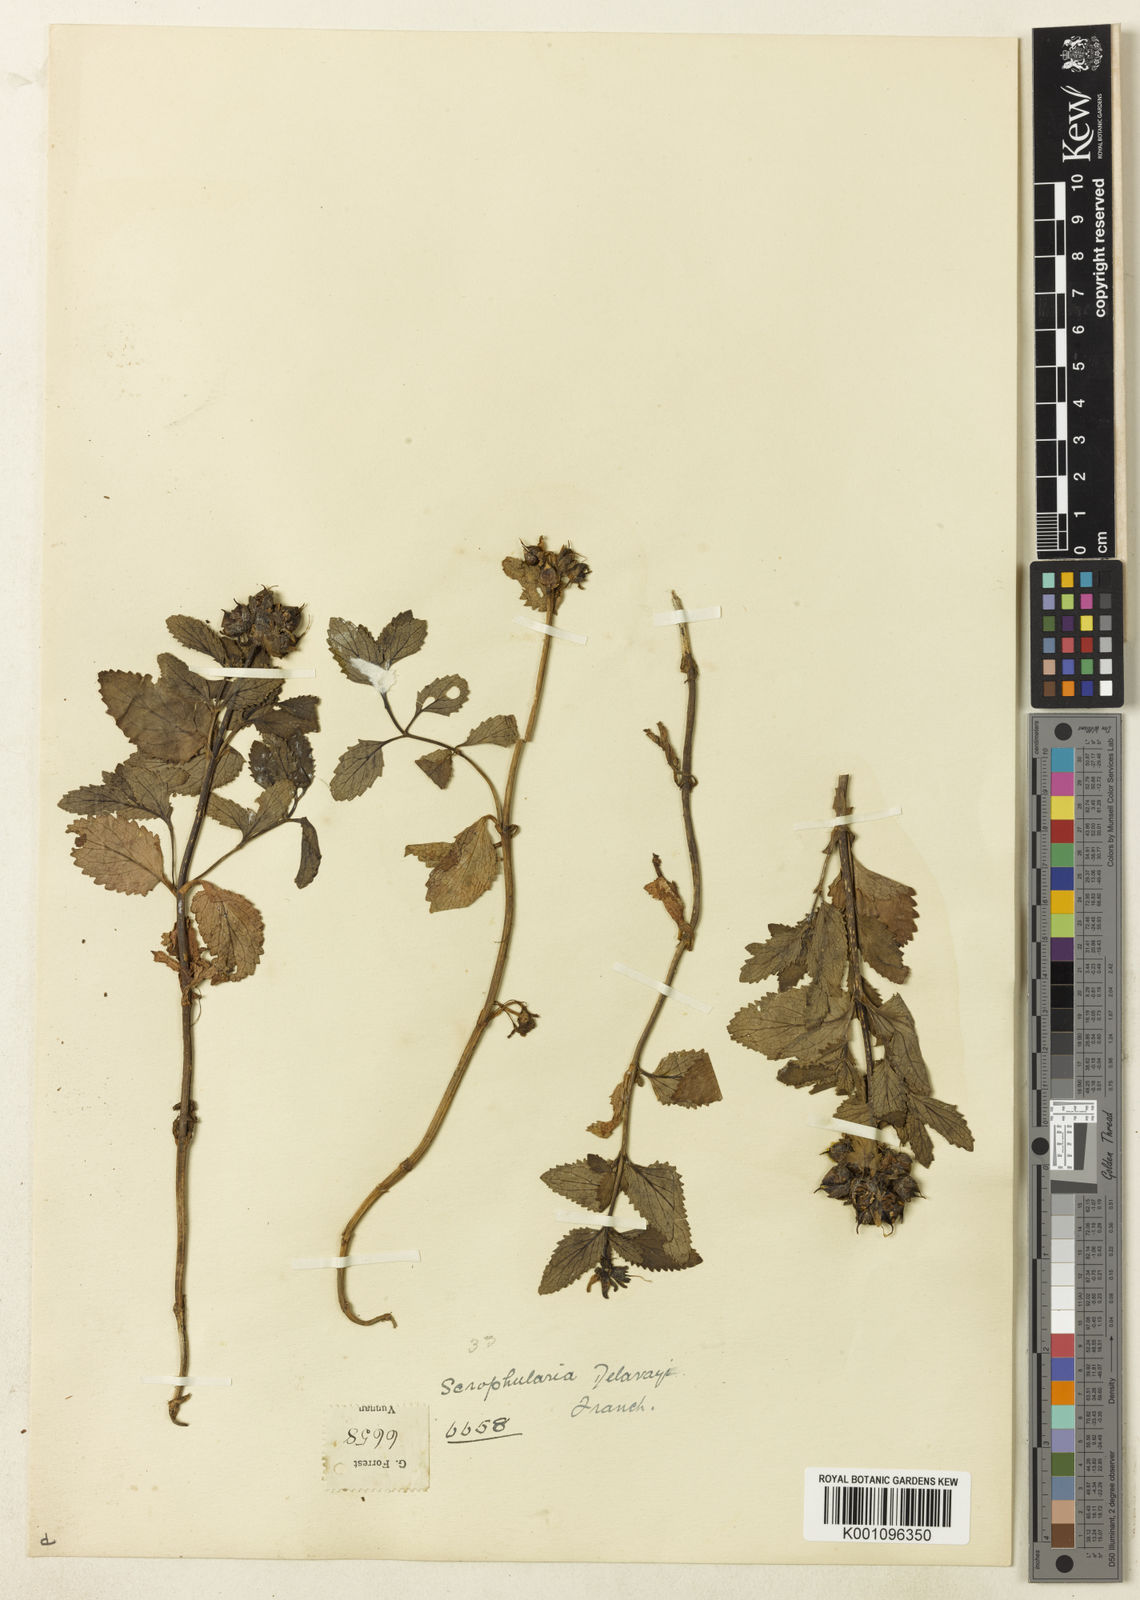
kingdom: Plantae
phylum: Tracheophyta
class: Magnoliopsida
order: Lamiales
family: Scrophulariaceae
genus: Scrophularia
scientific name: Scrophularia chasmophila
